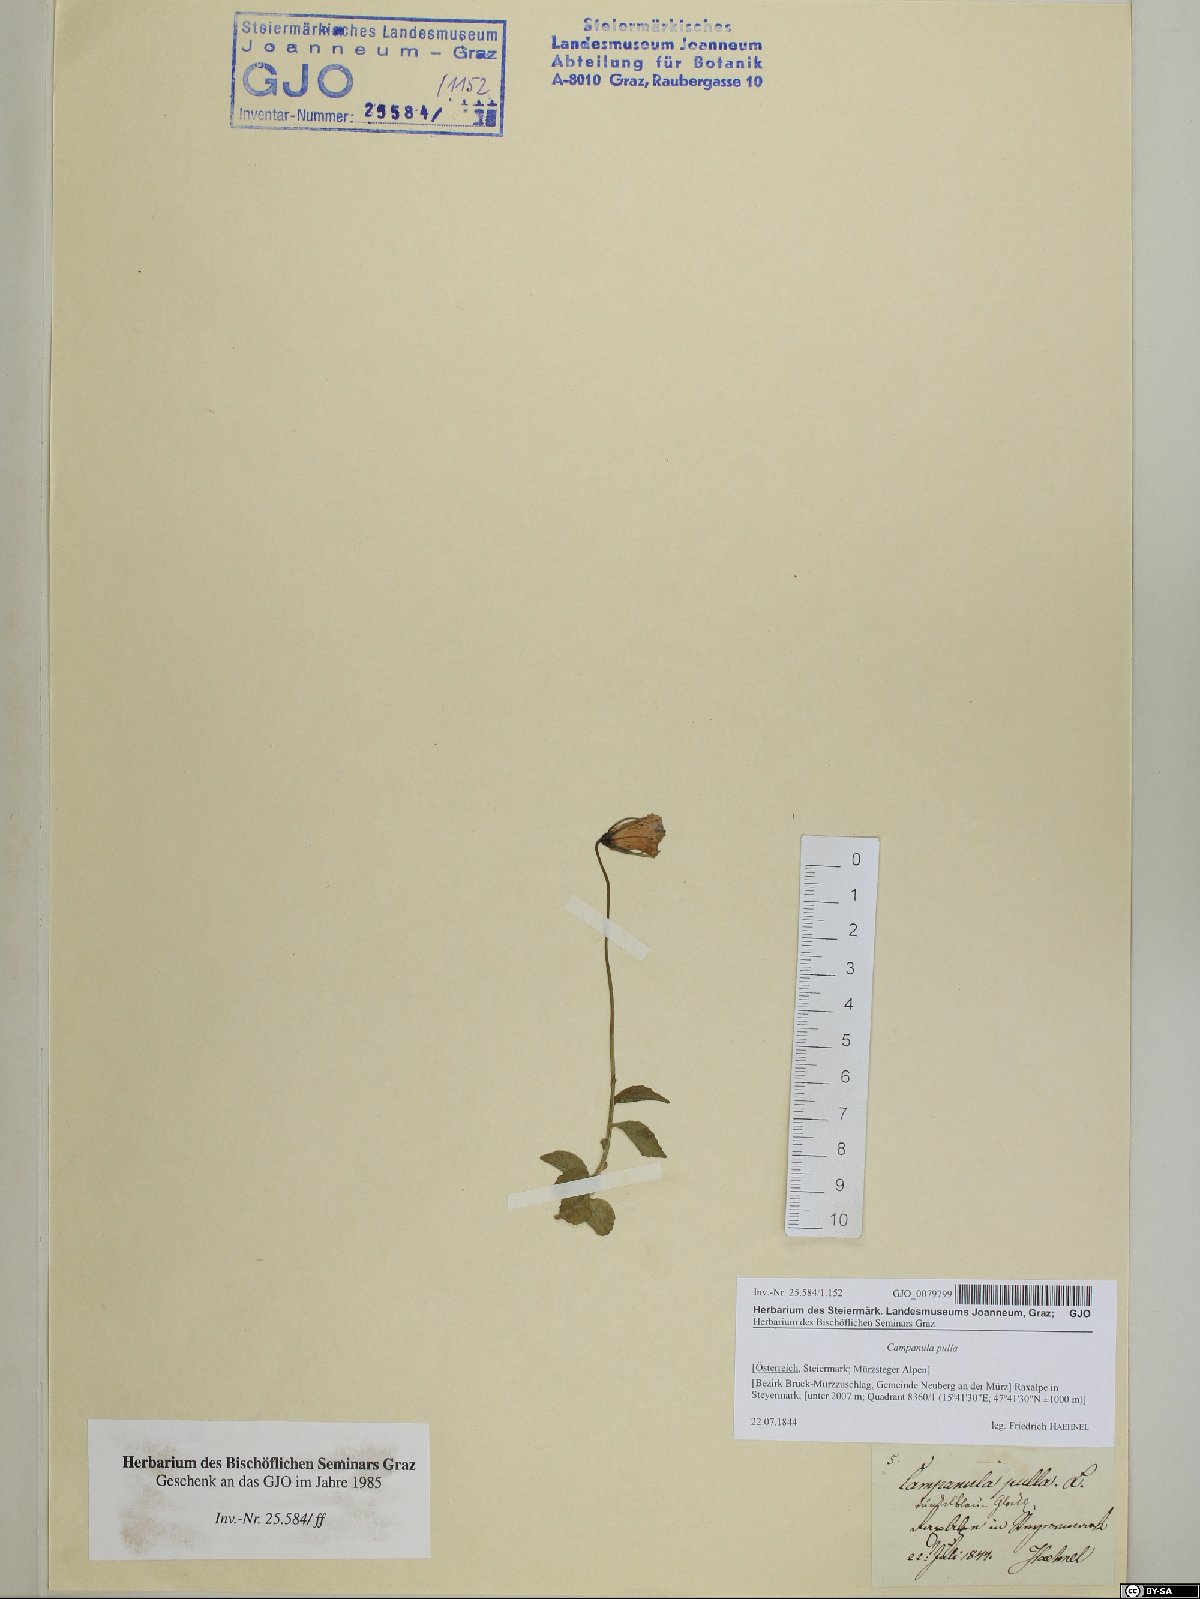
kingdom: Plantae
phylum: Tracheophyta
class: Magnoliopsida
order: Asterales
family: Campanulaceae
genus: Campanula
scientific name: Campanula pulla
